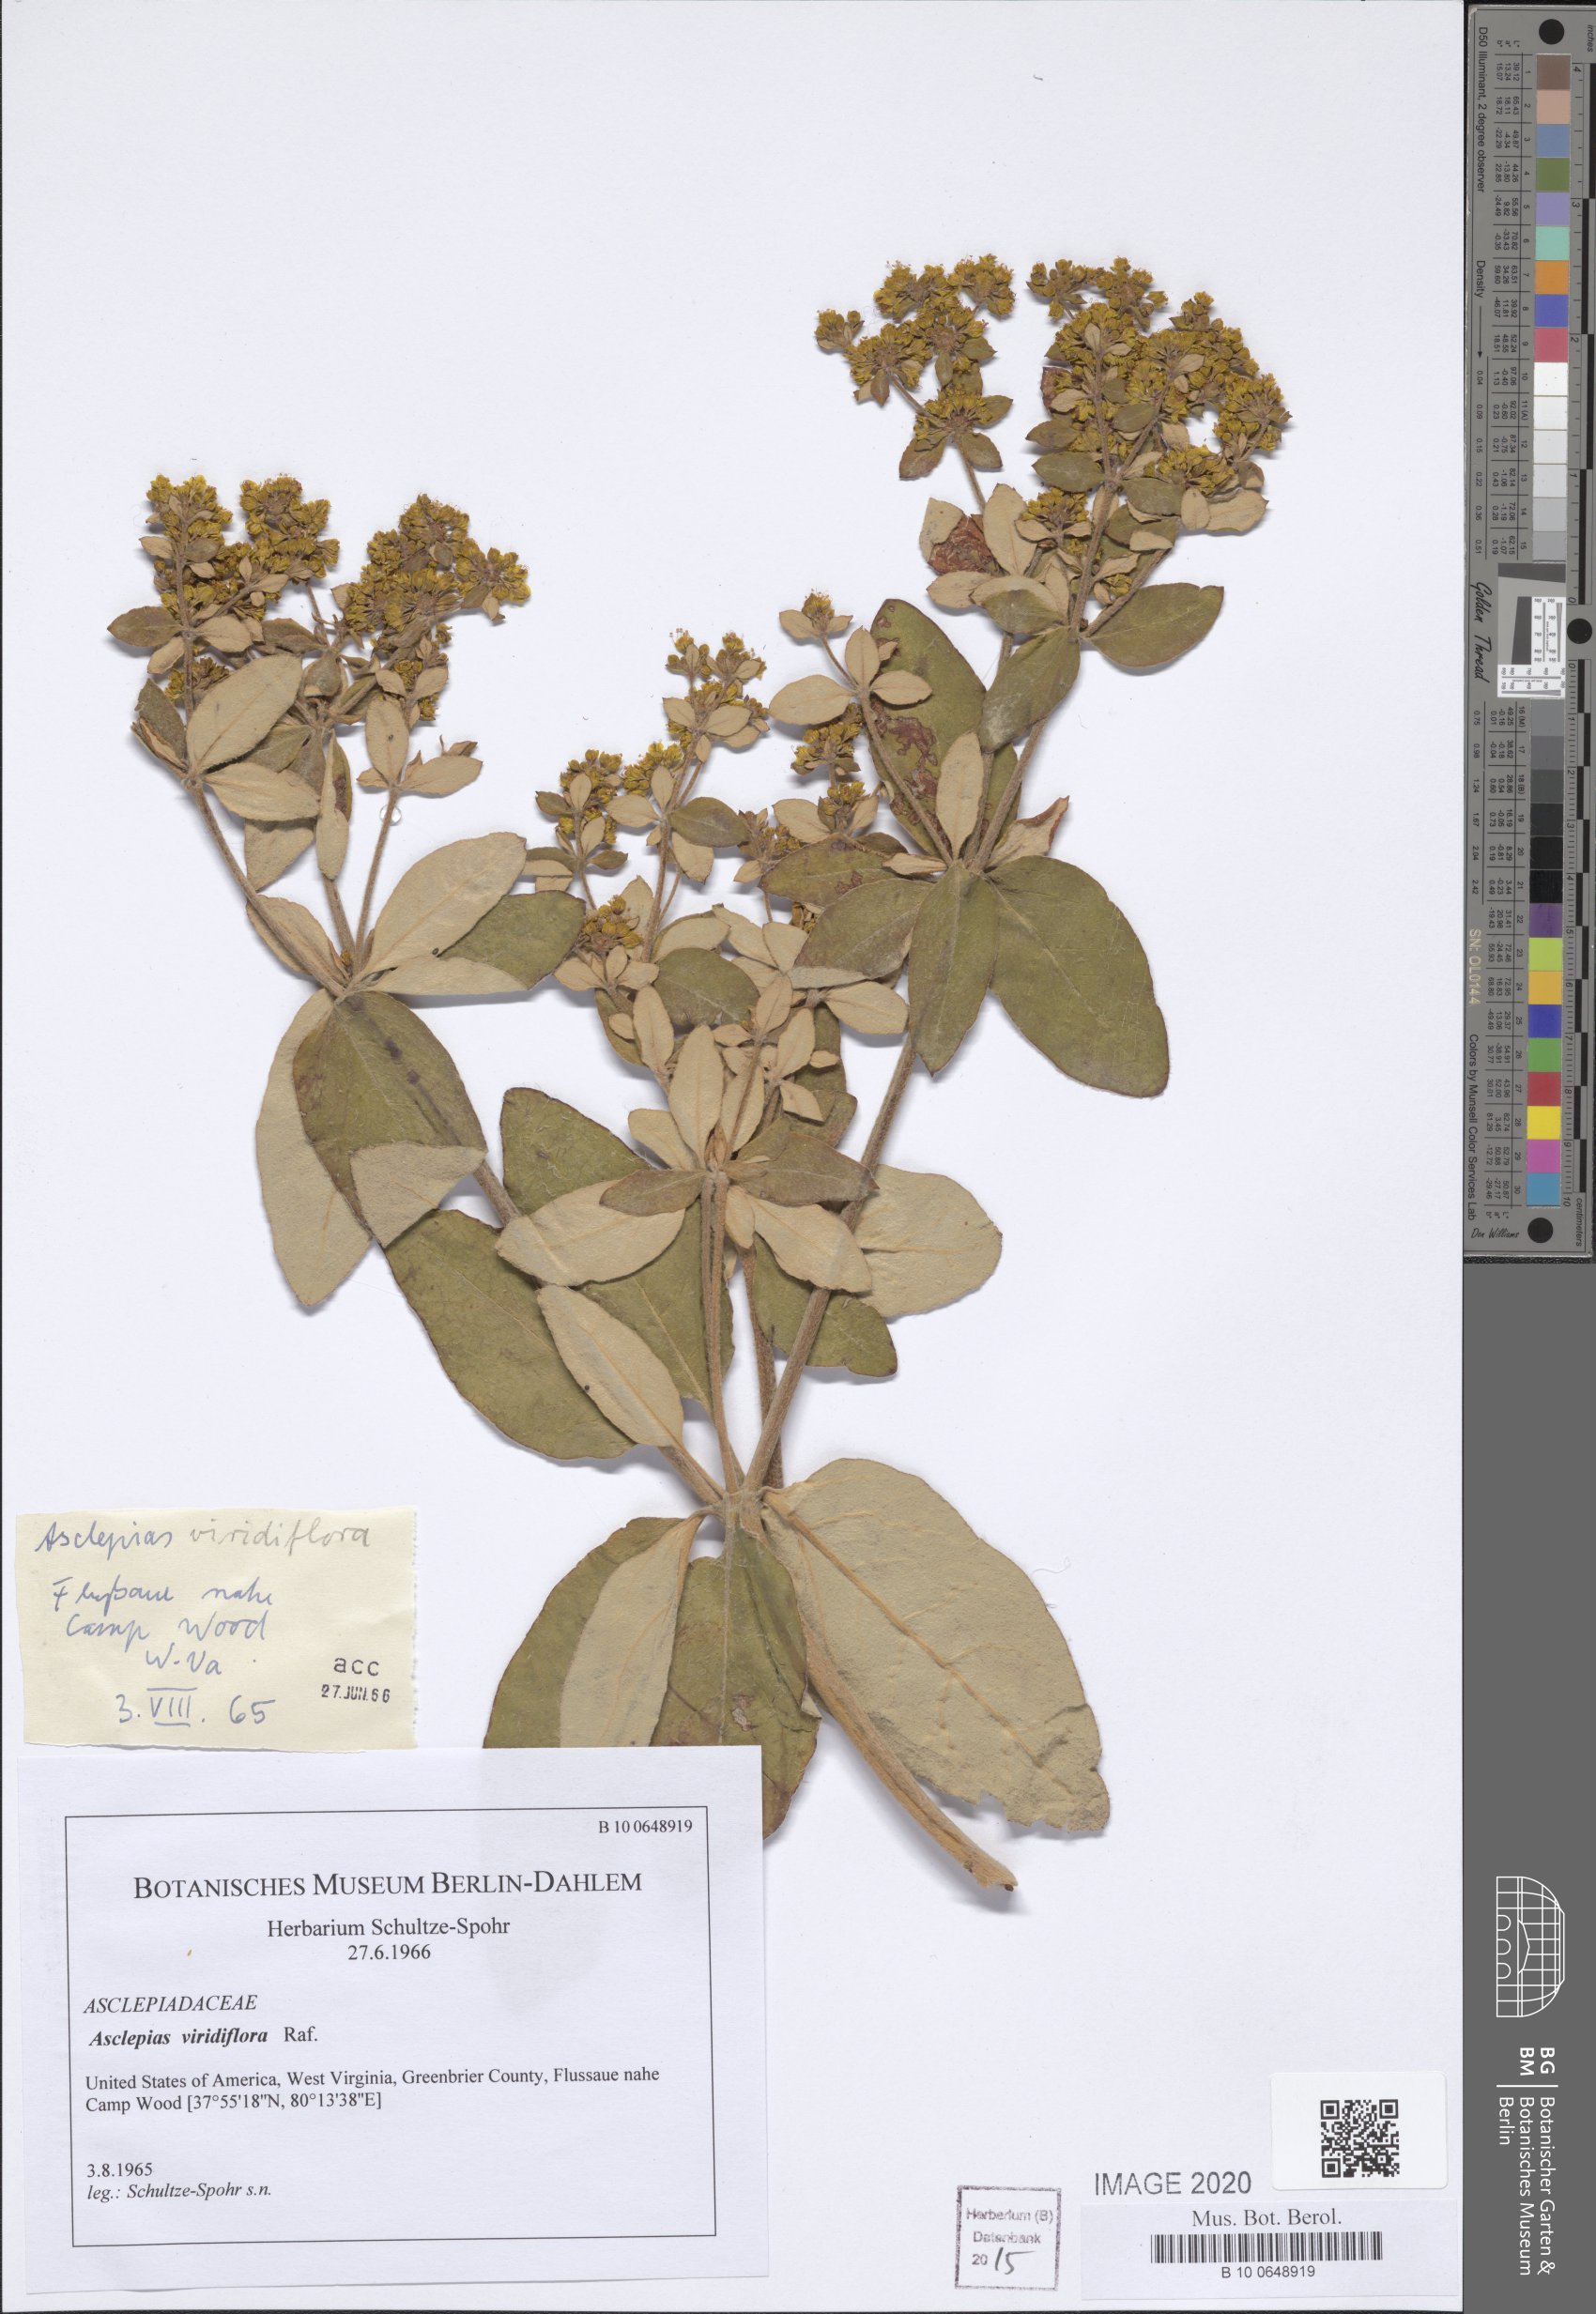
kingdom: Plantae
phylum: Tracheophyta
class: Magnoliopsida
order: Gentianales
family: Apocynaceae
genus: Asclepias
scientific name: Asclepias viridiflora
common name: Green comet milkweed
